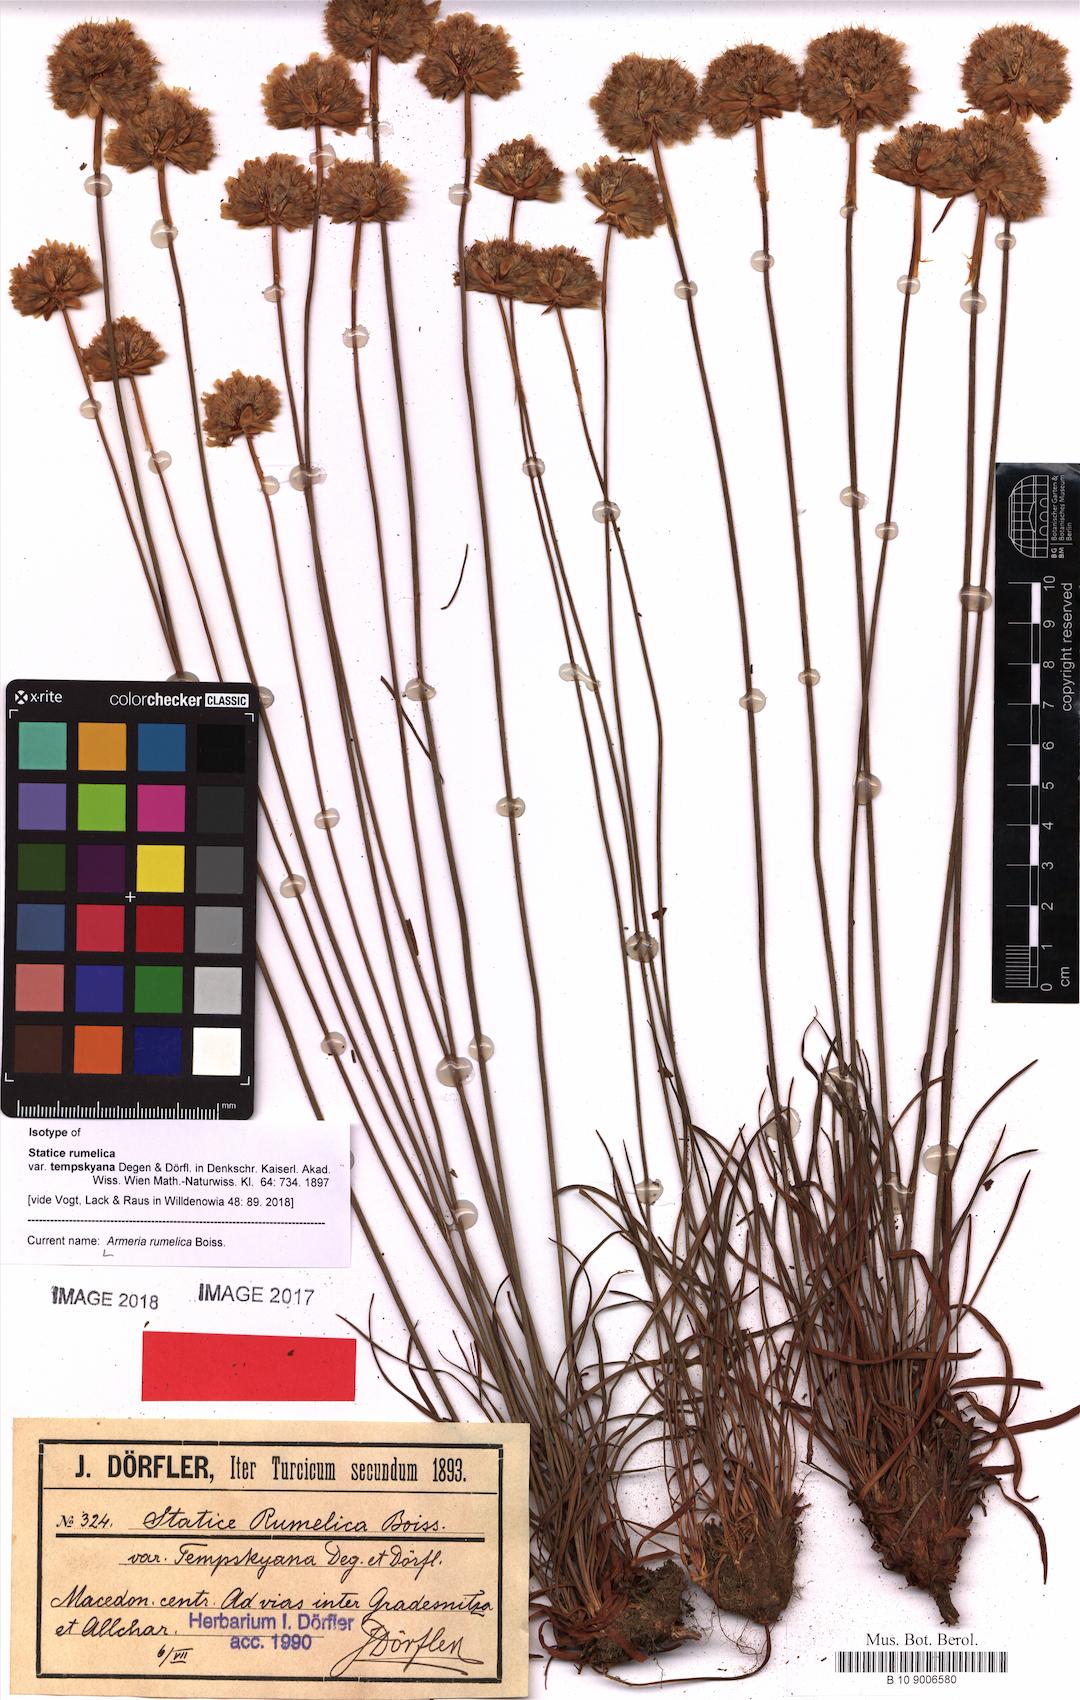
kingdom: Plantae
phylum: Tracheophyta
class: Magnoliopsida
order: Caryophyllales
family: Plumbaginaceae
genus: Armeria
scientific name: Armeria rumelica
